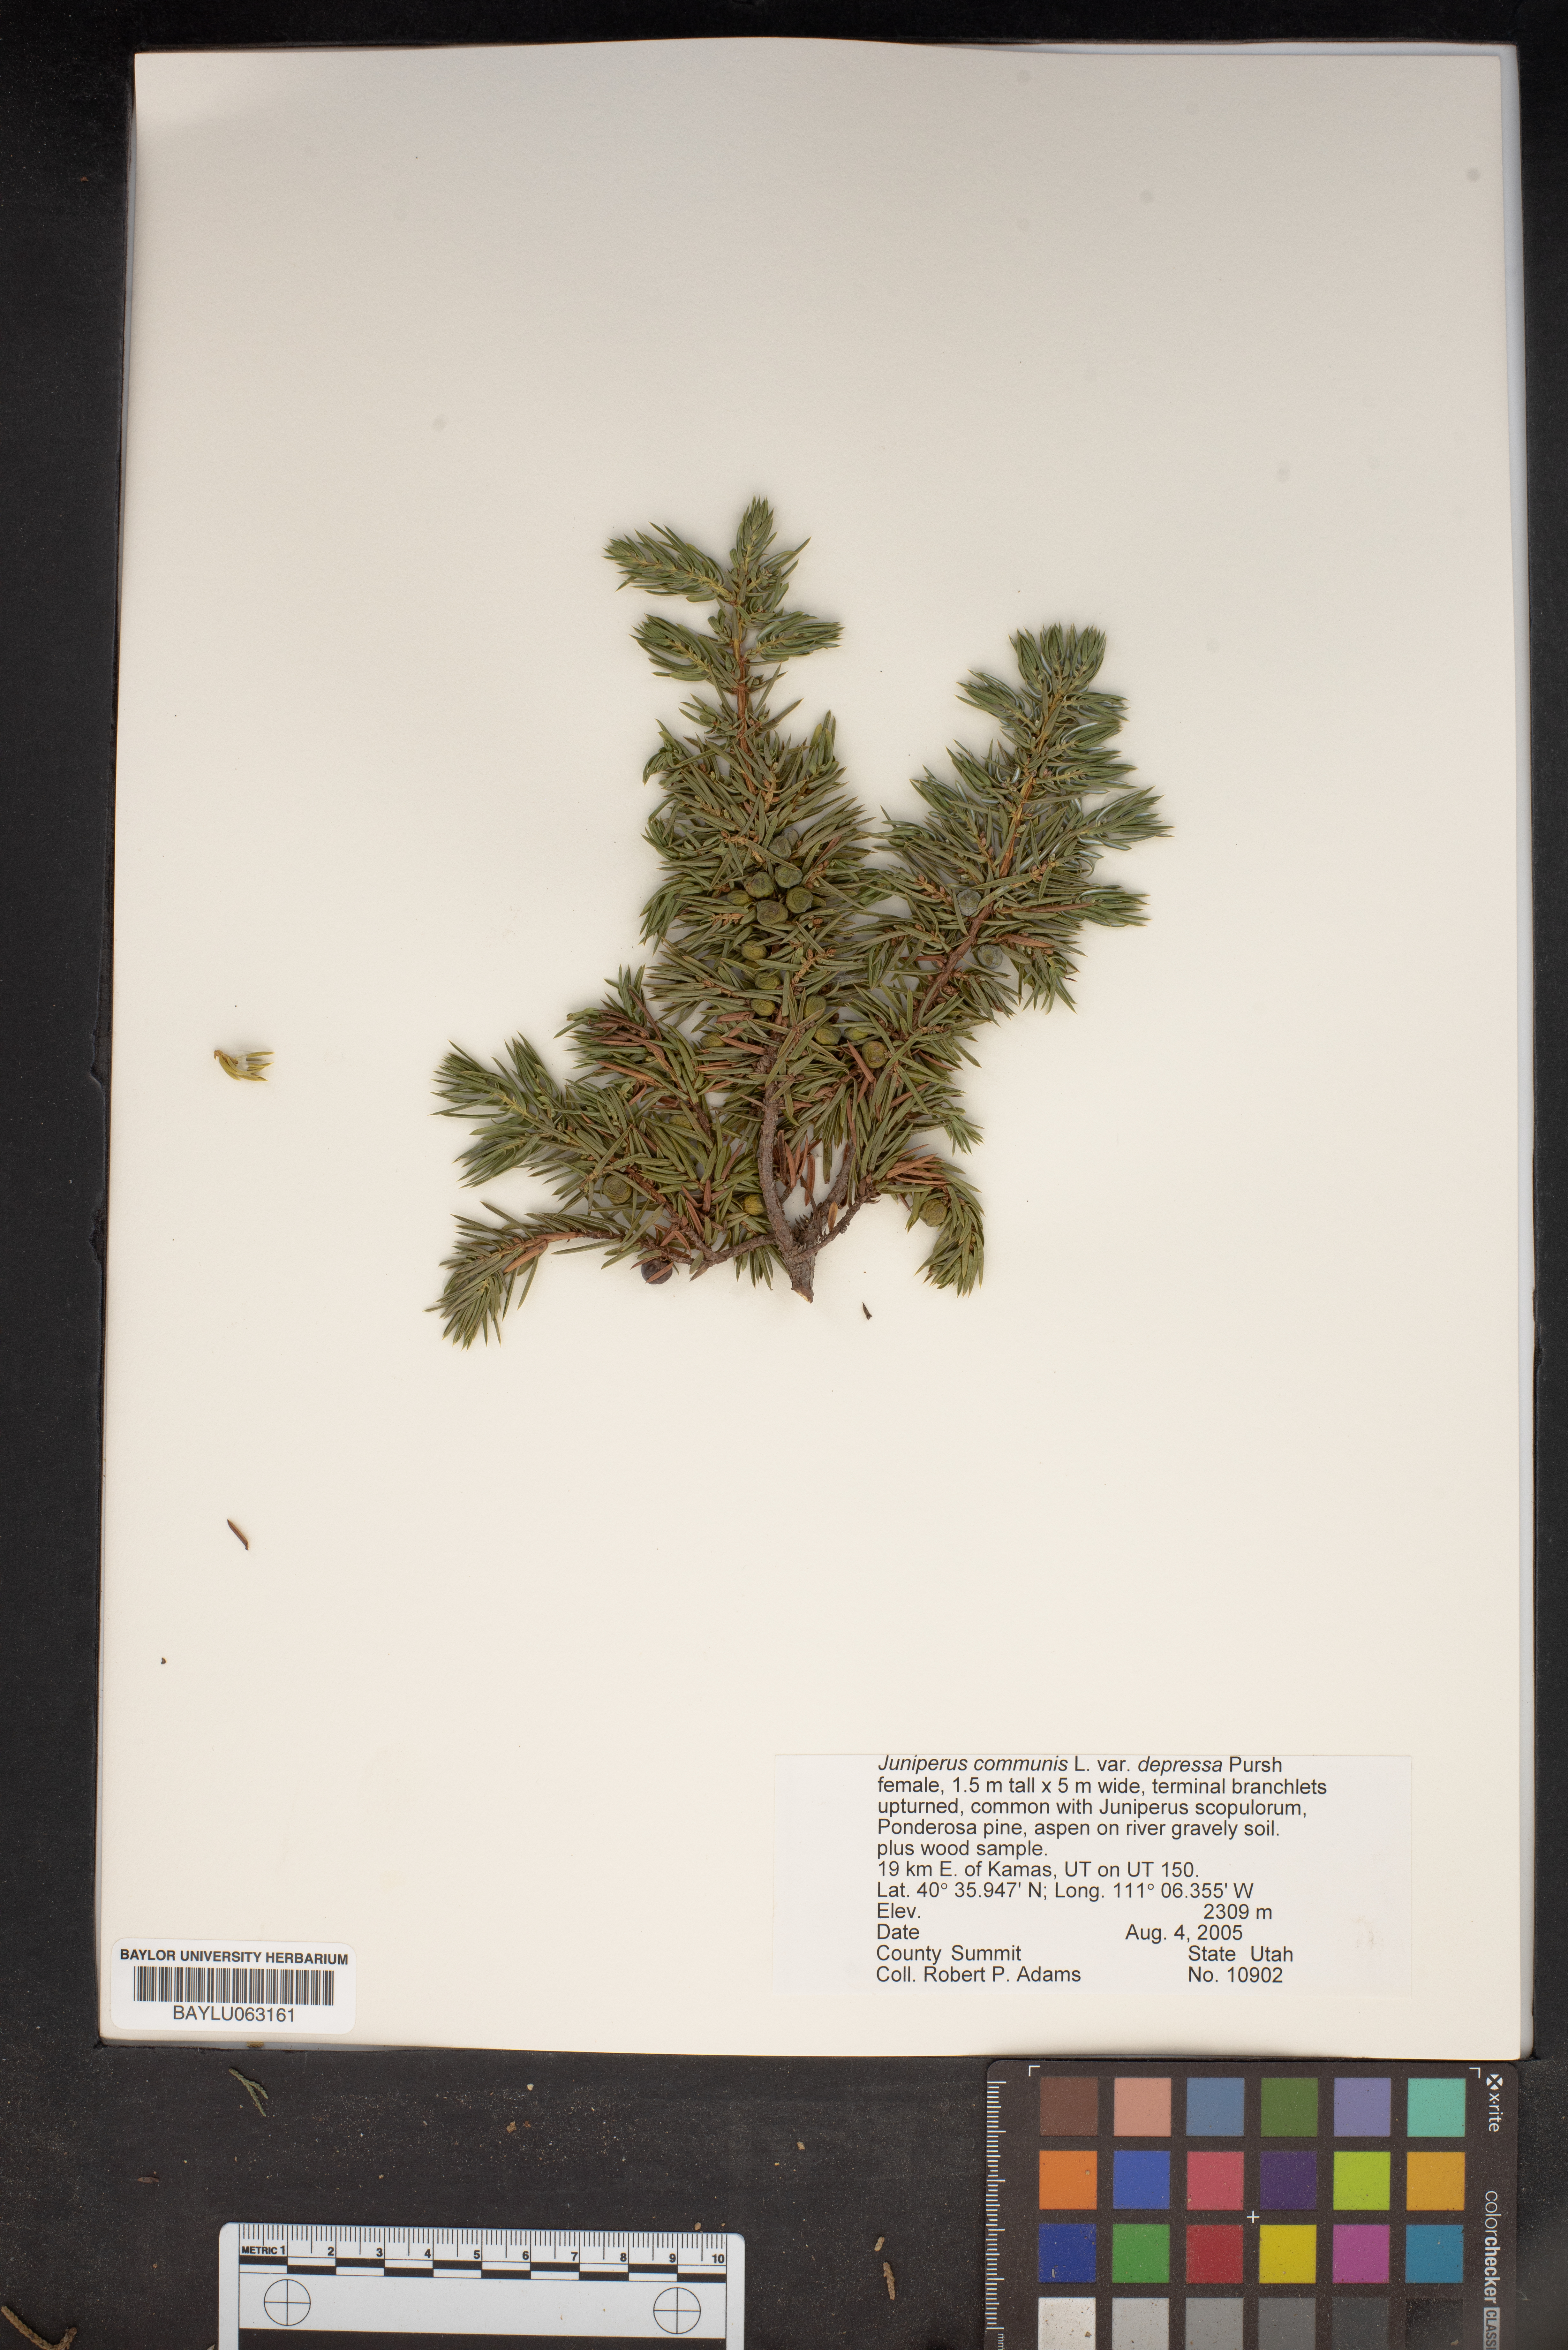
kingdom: Plantae
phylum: Tracheophyta
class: Pinopsida
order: Pinales
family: Cupressaceae
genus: Juniperus
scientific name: Juniperus communis
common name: Common juniper
